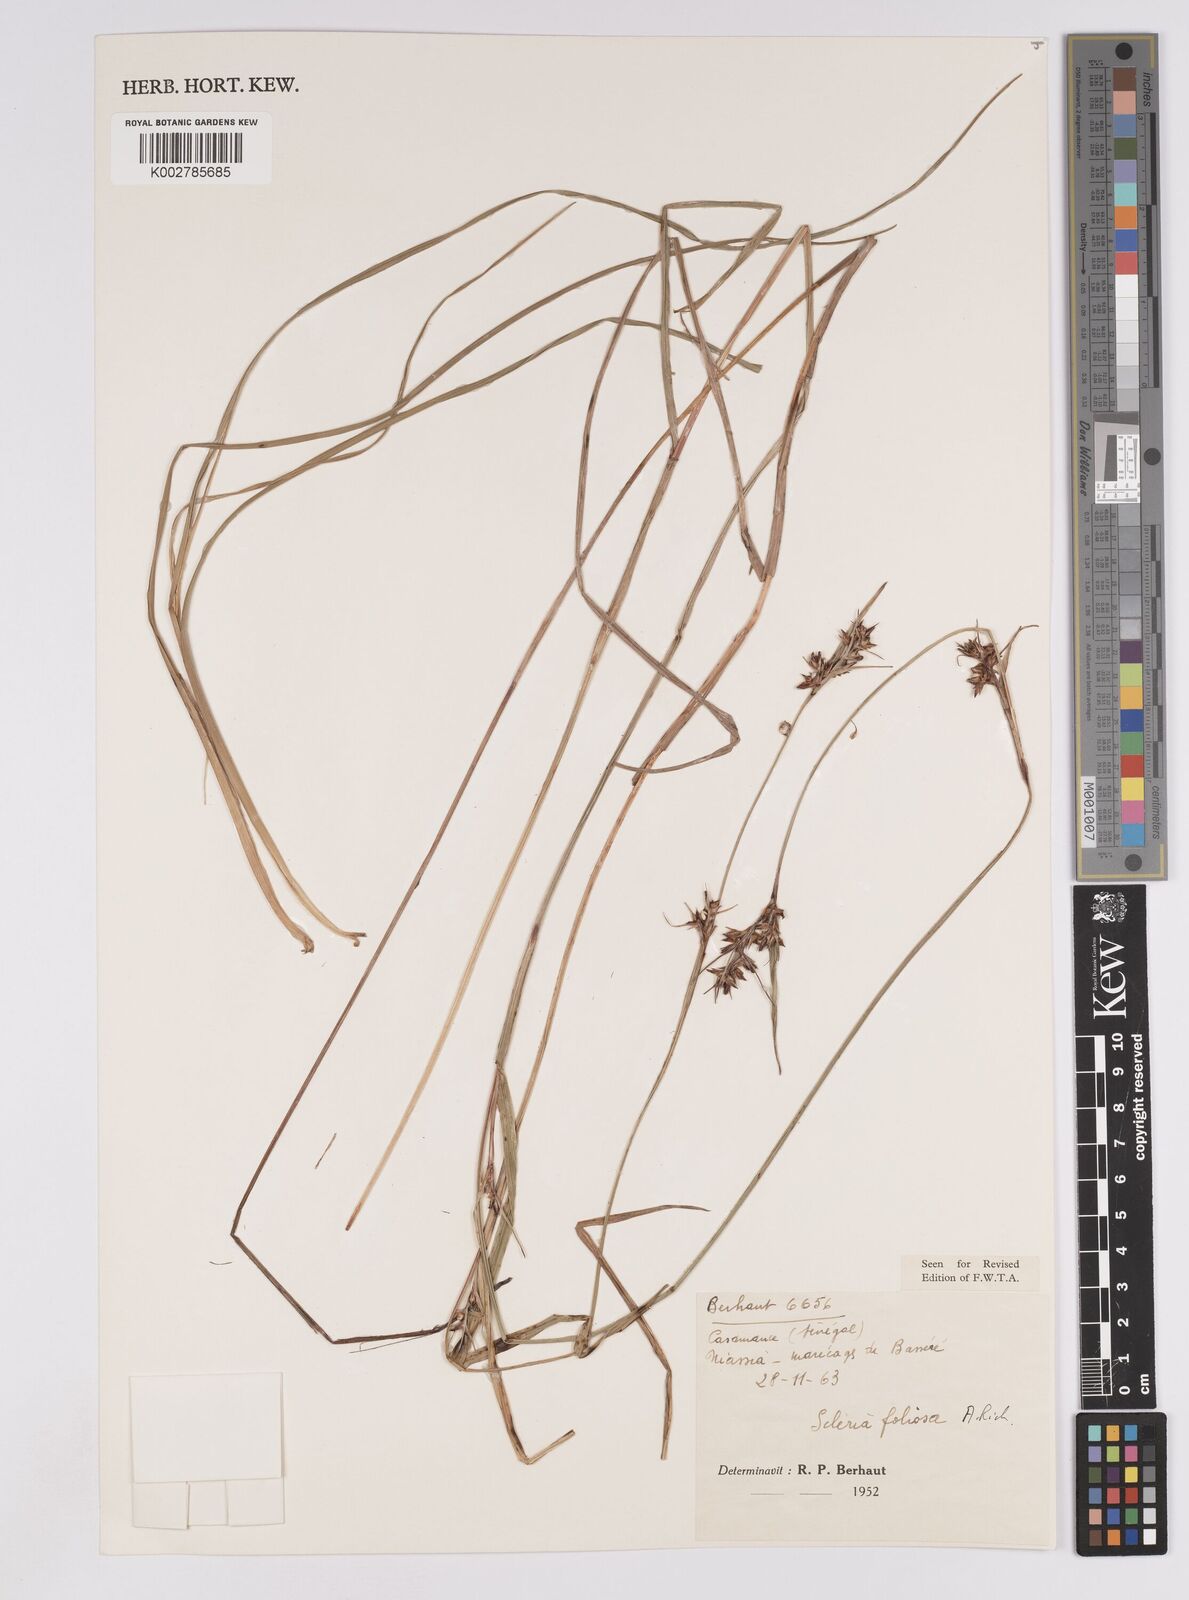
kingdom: Plantae
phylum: Tracheophyta
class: Liliopsida
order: Poales
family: Cyperaceae
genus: Scleria
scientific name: Scleria foliosa
